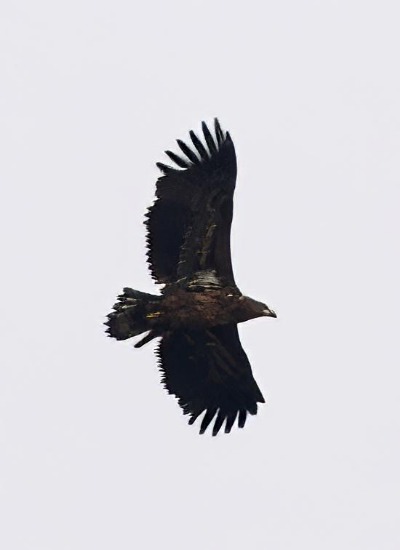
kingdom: Animalia
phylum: Chordata
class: Aves
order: Accipitriformes
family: Accipitridae
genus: Haliaeetus
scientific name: Haliaeetus albicilla
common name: Havørn
